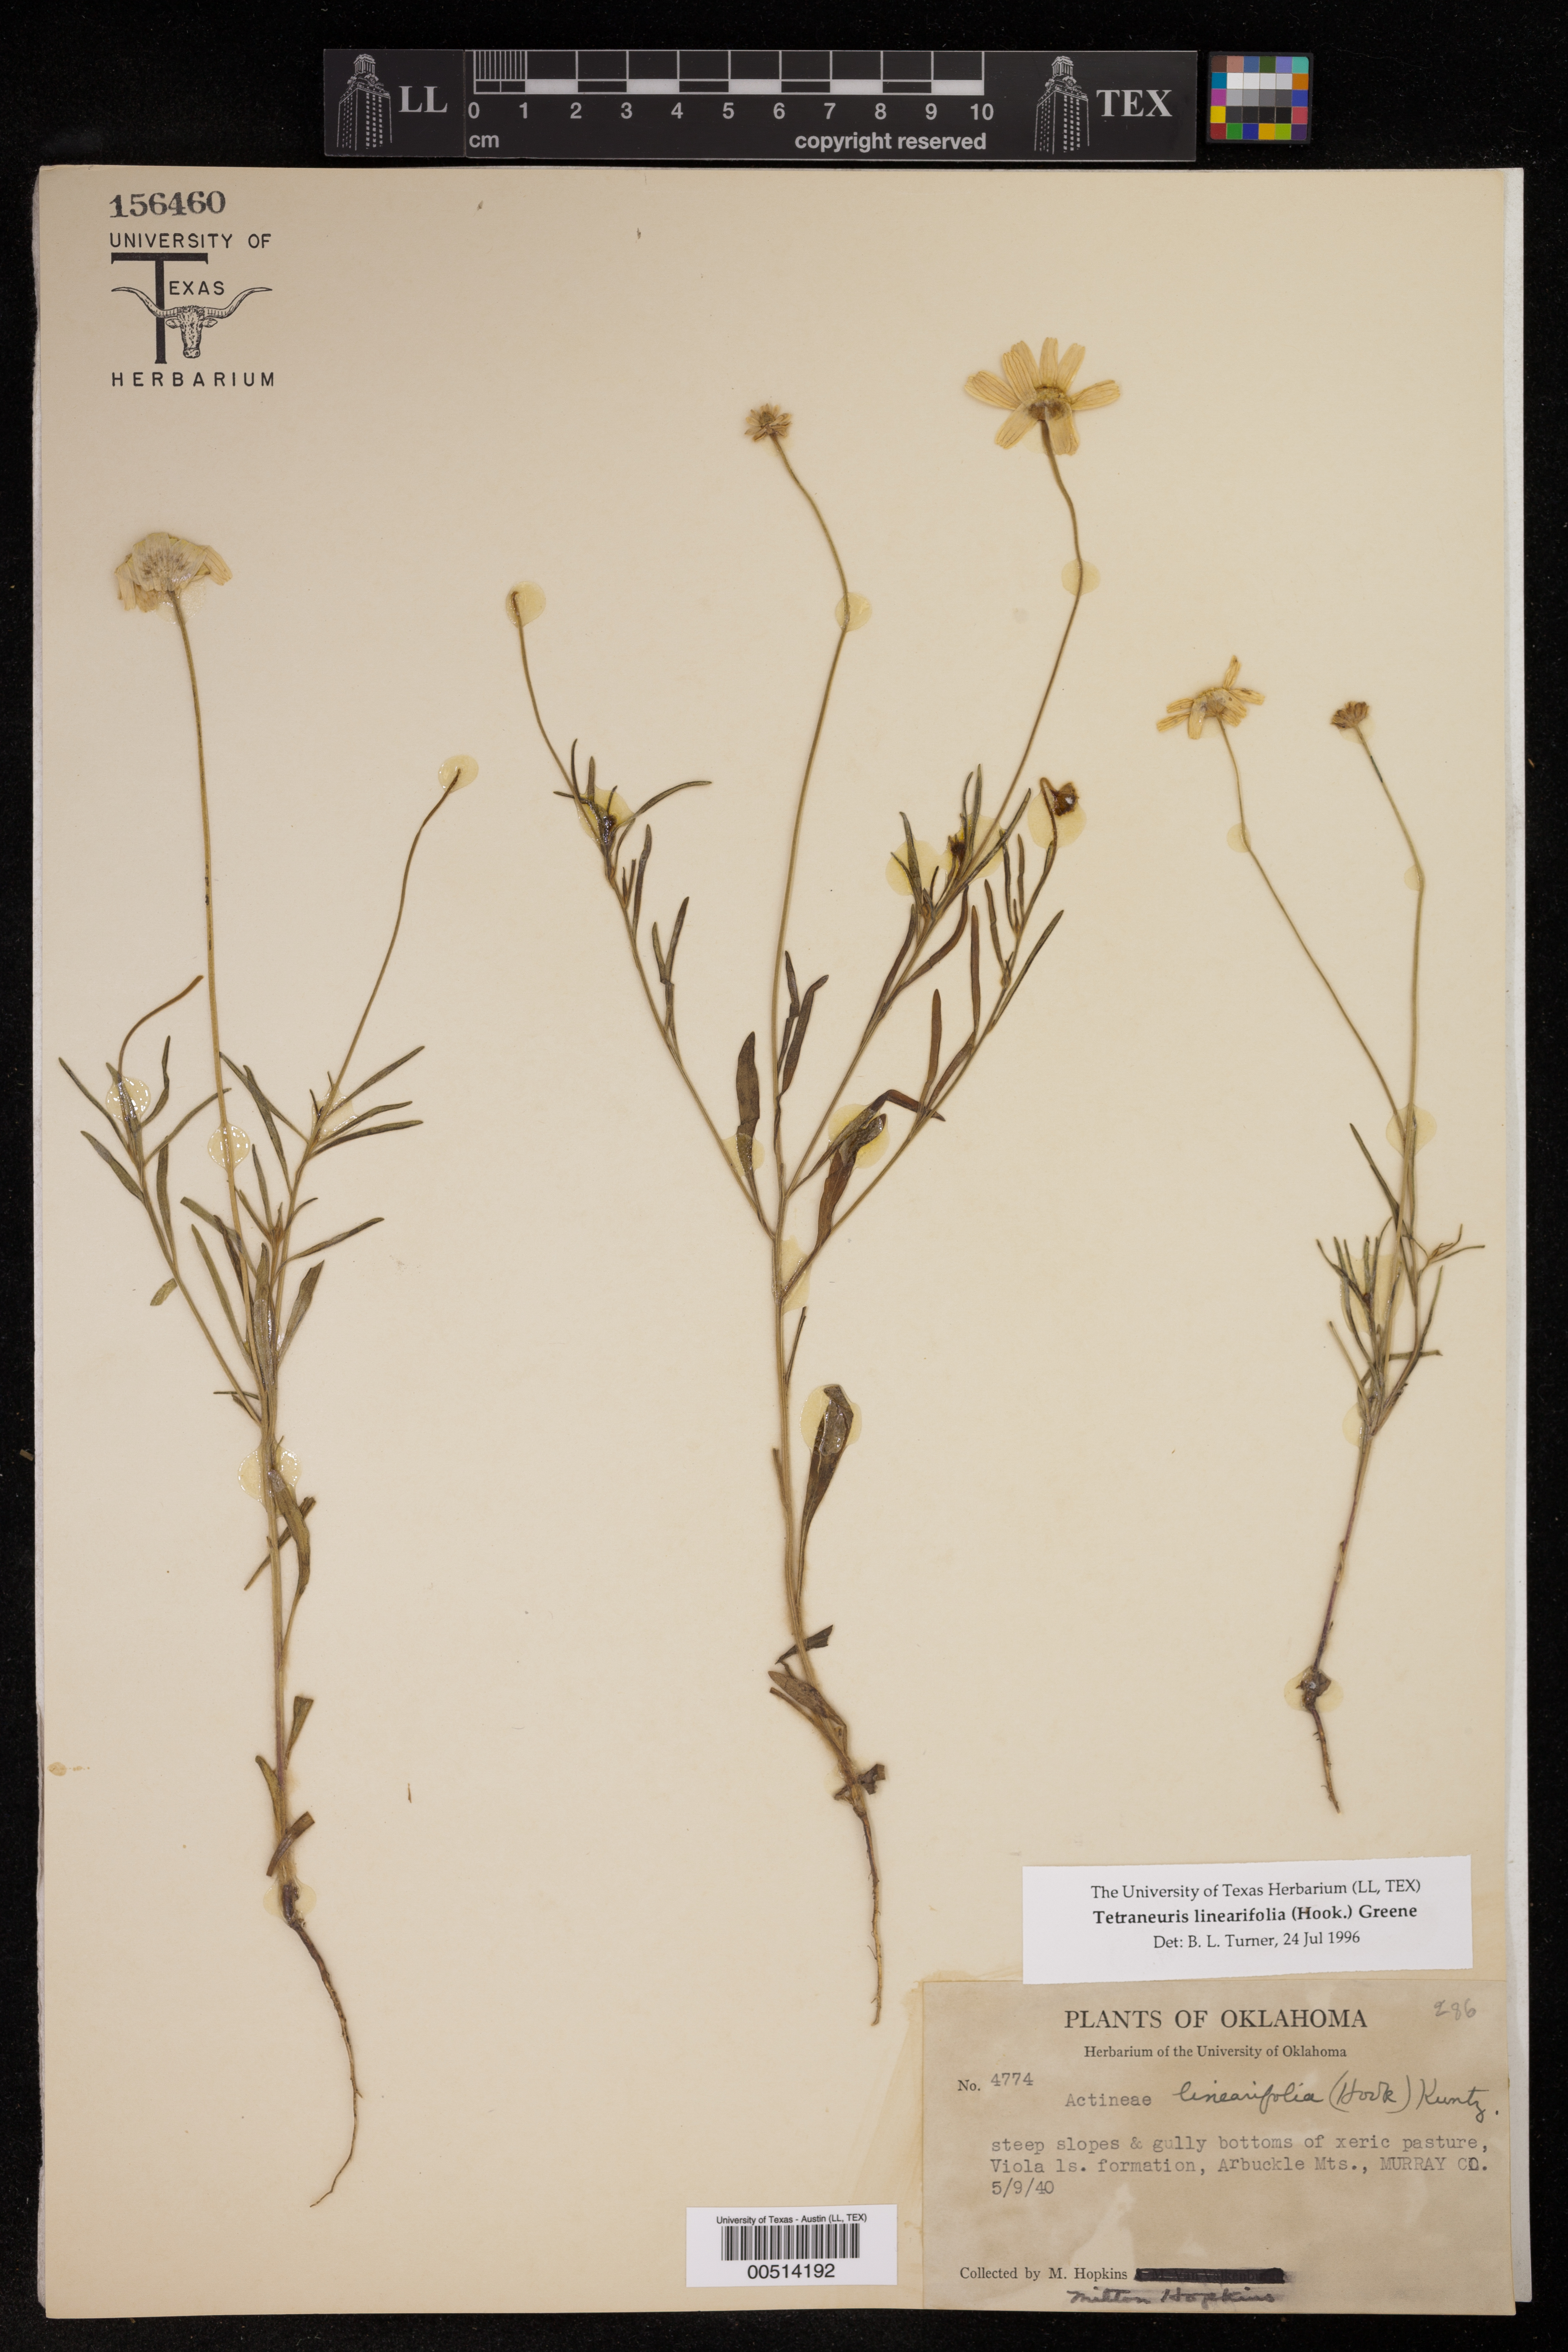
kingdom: Plantae
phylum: Tracheophyta
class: Magnoliopsida
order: Asterales
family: Asteraceae
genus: Tetraneuris
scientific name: Tetraneuris linearifolia
